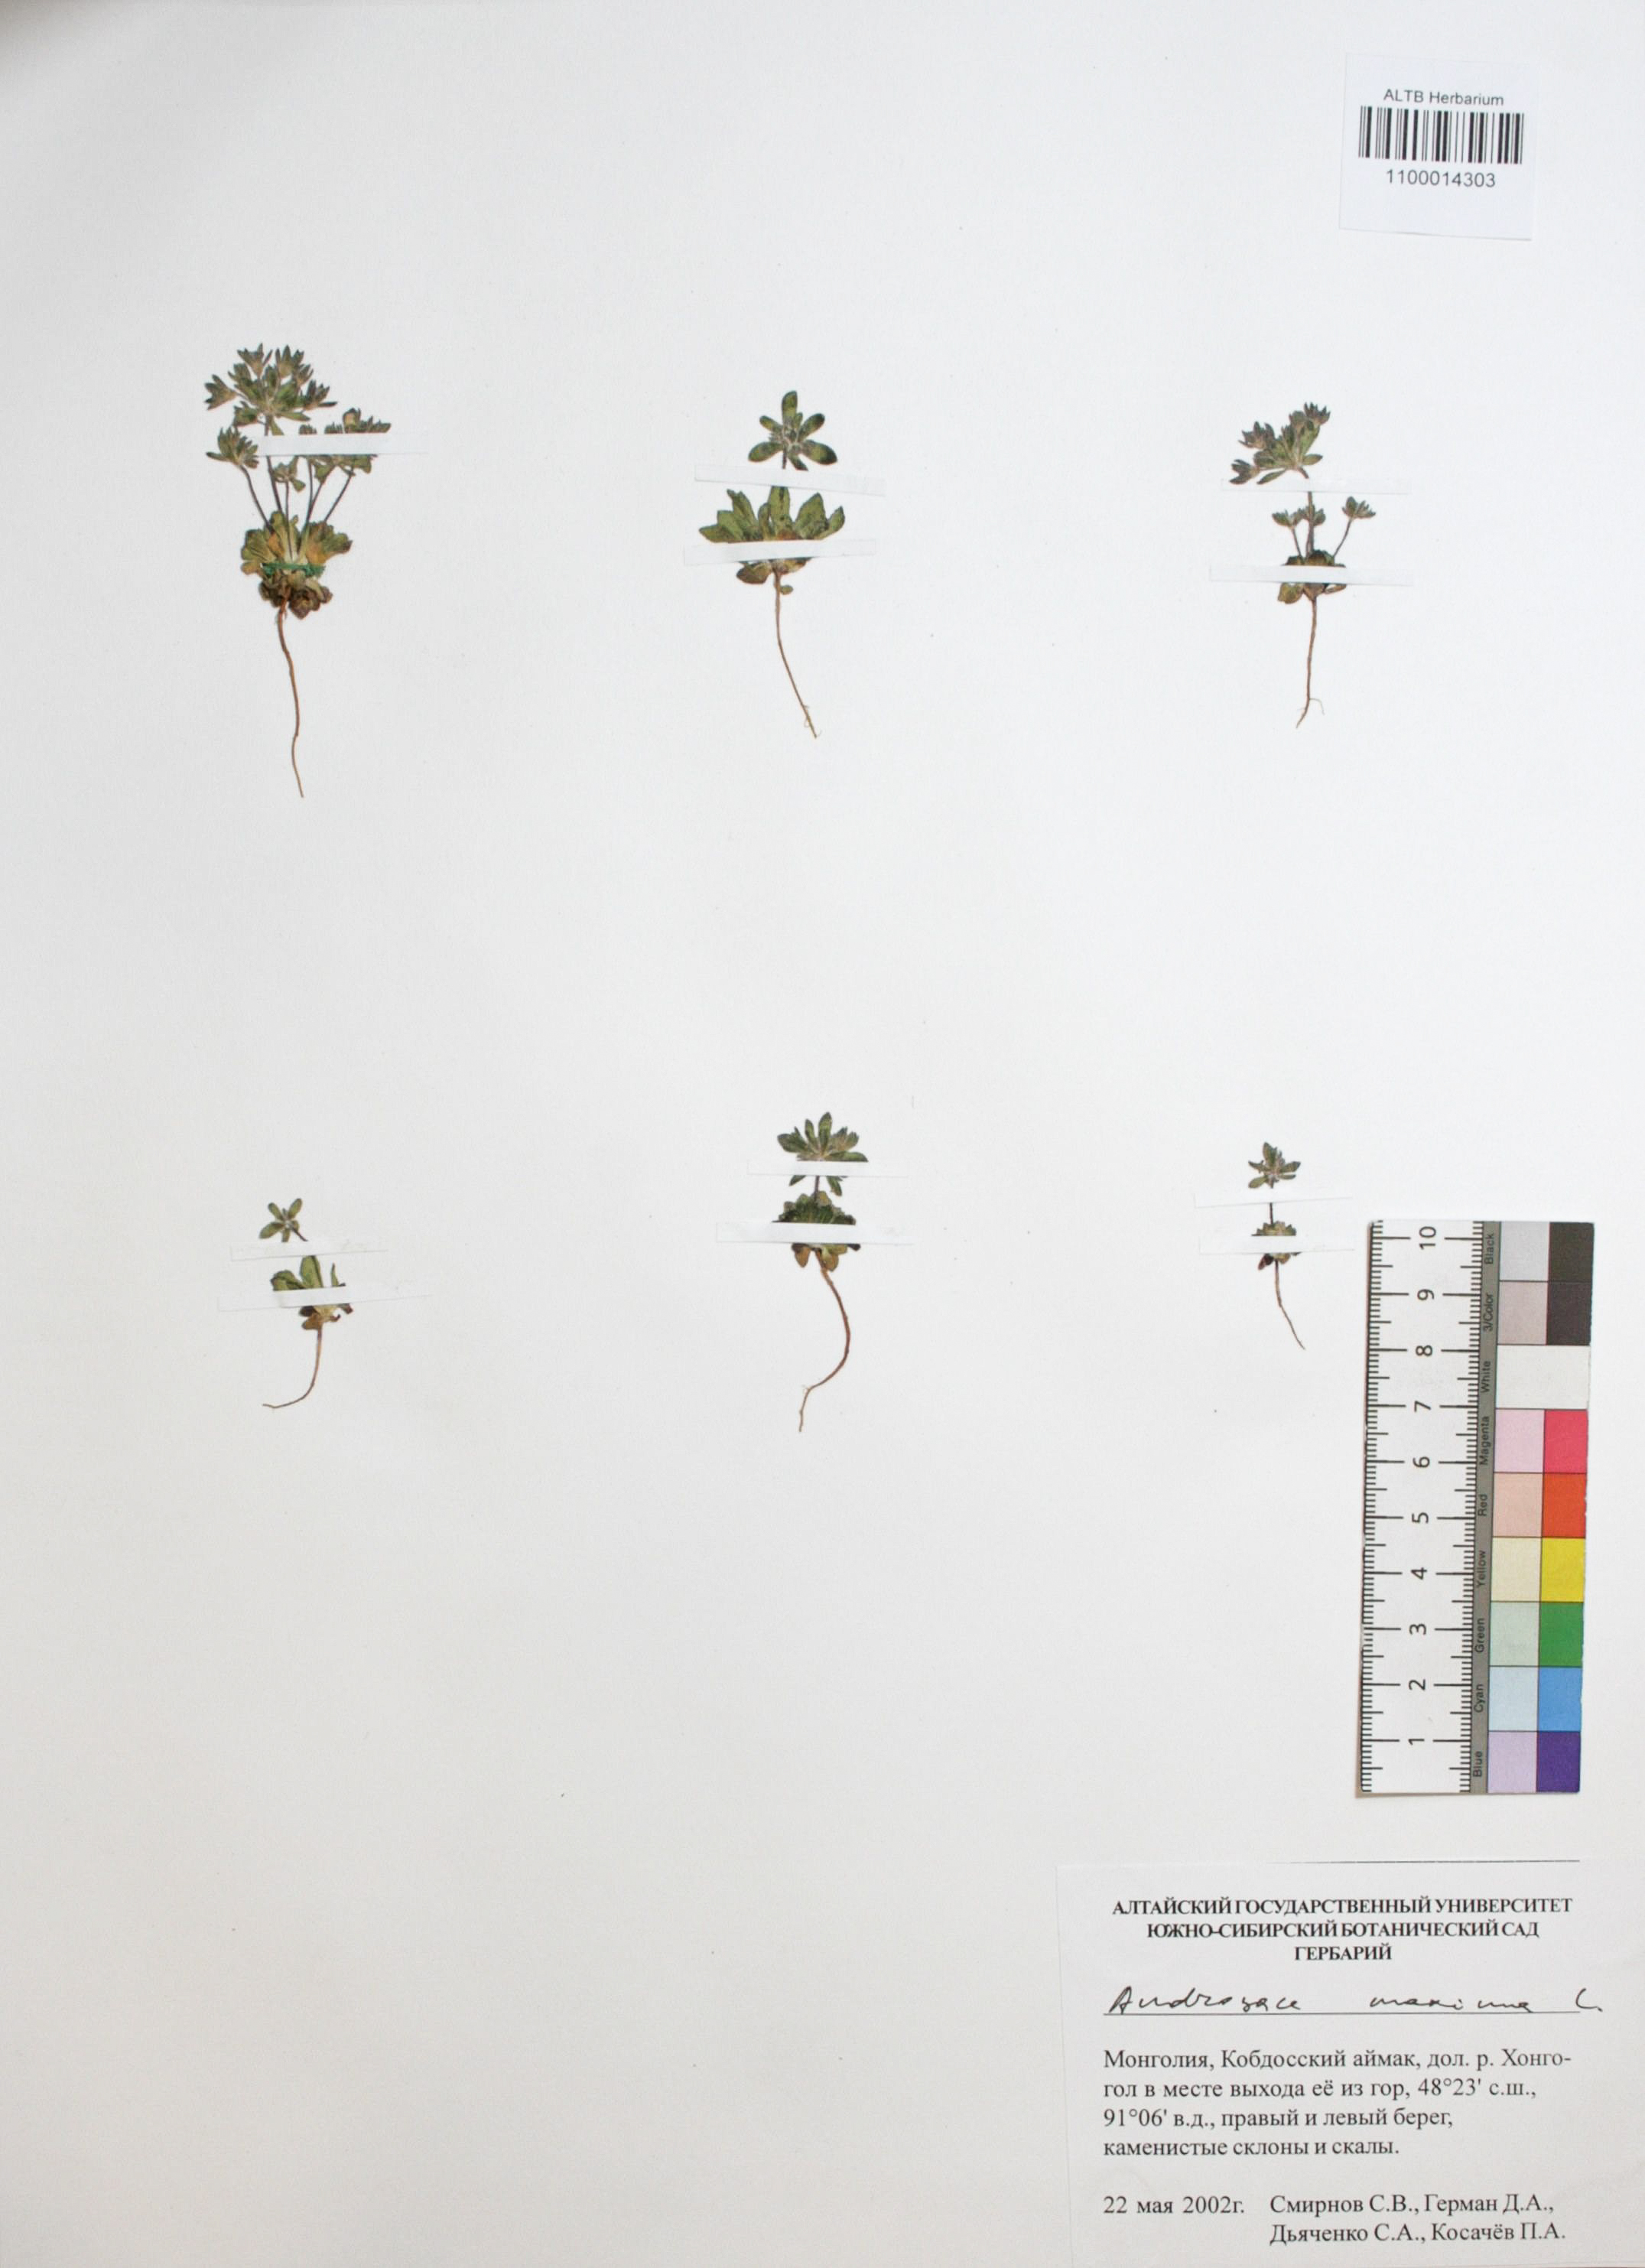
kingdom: Plantae
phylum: Tracheophyta
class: Magnoliopsida
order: Ericales
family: Primulaceae
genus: Androsace
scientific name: Androsace maxima
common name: Annual androsace
